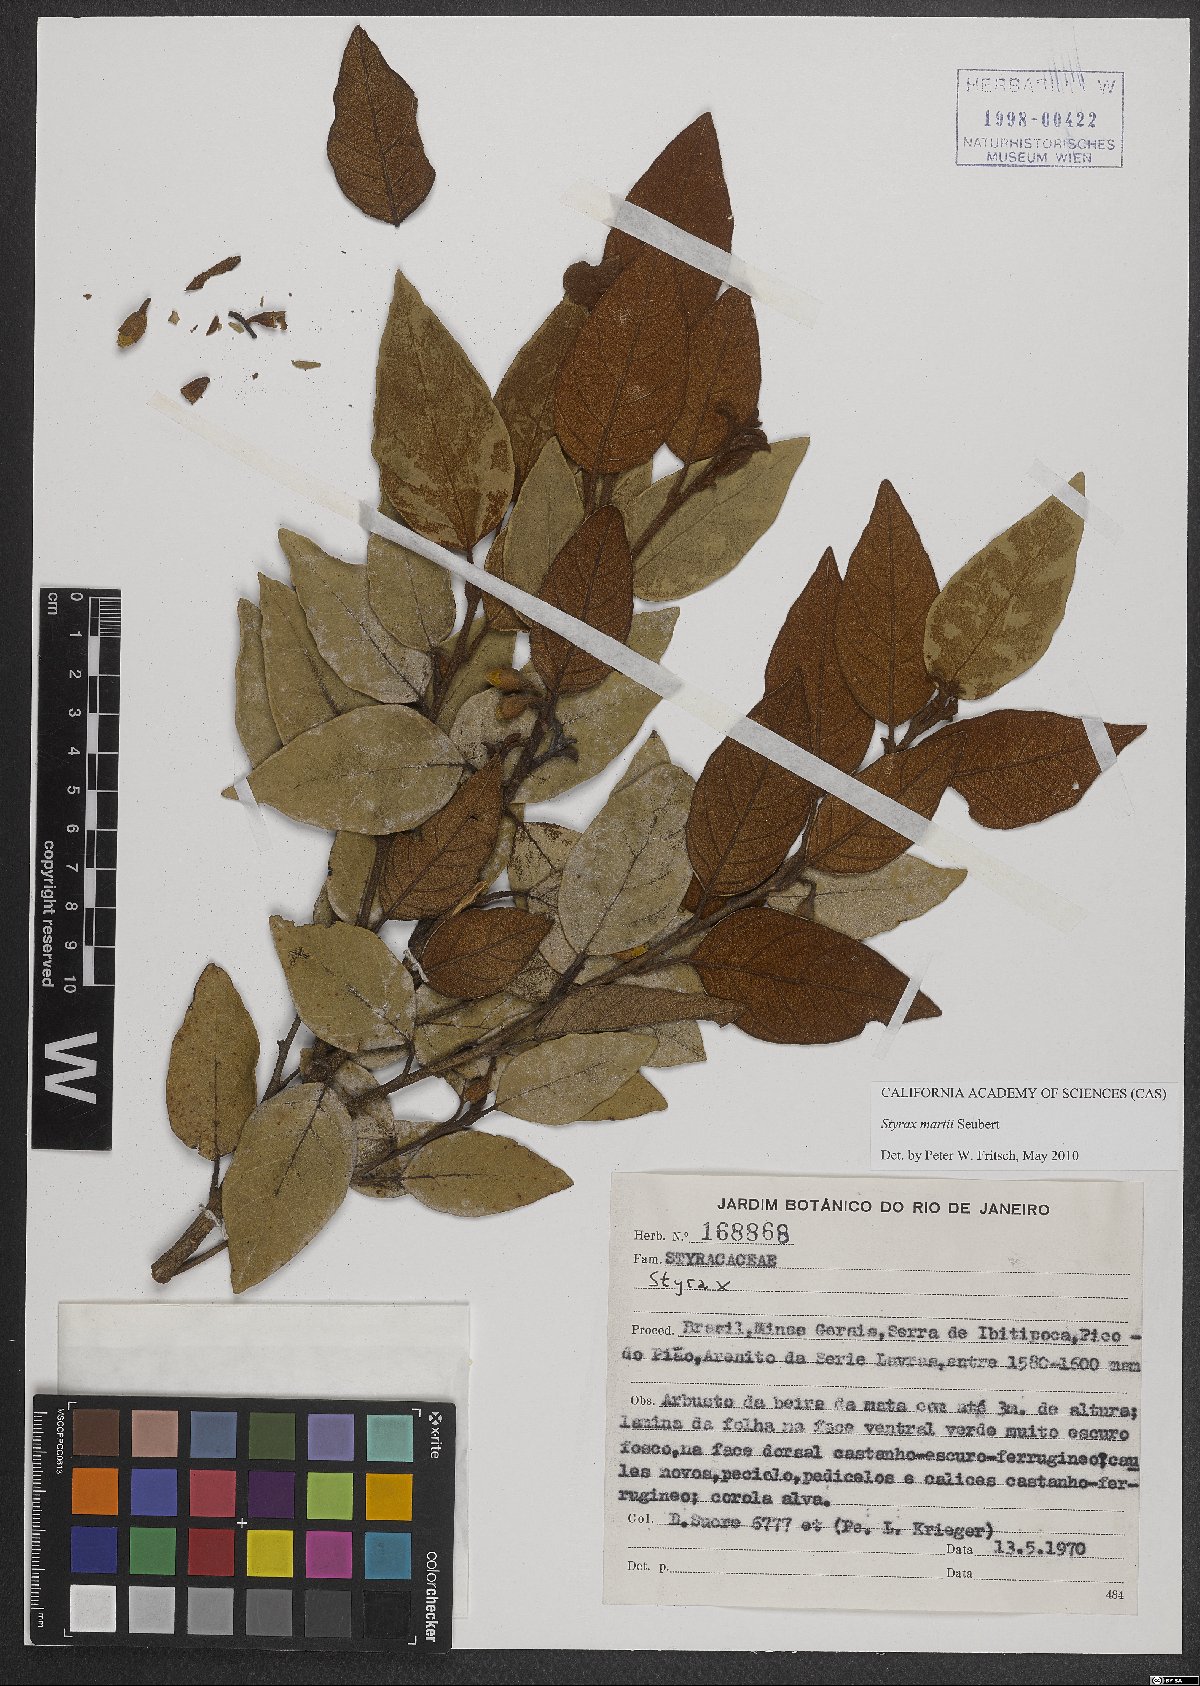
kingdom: Plantae
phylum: Tracheophyta
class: Magnoliopsida
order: Ericales
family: Styracaceae
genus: Styrax
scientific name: Styrax martii
